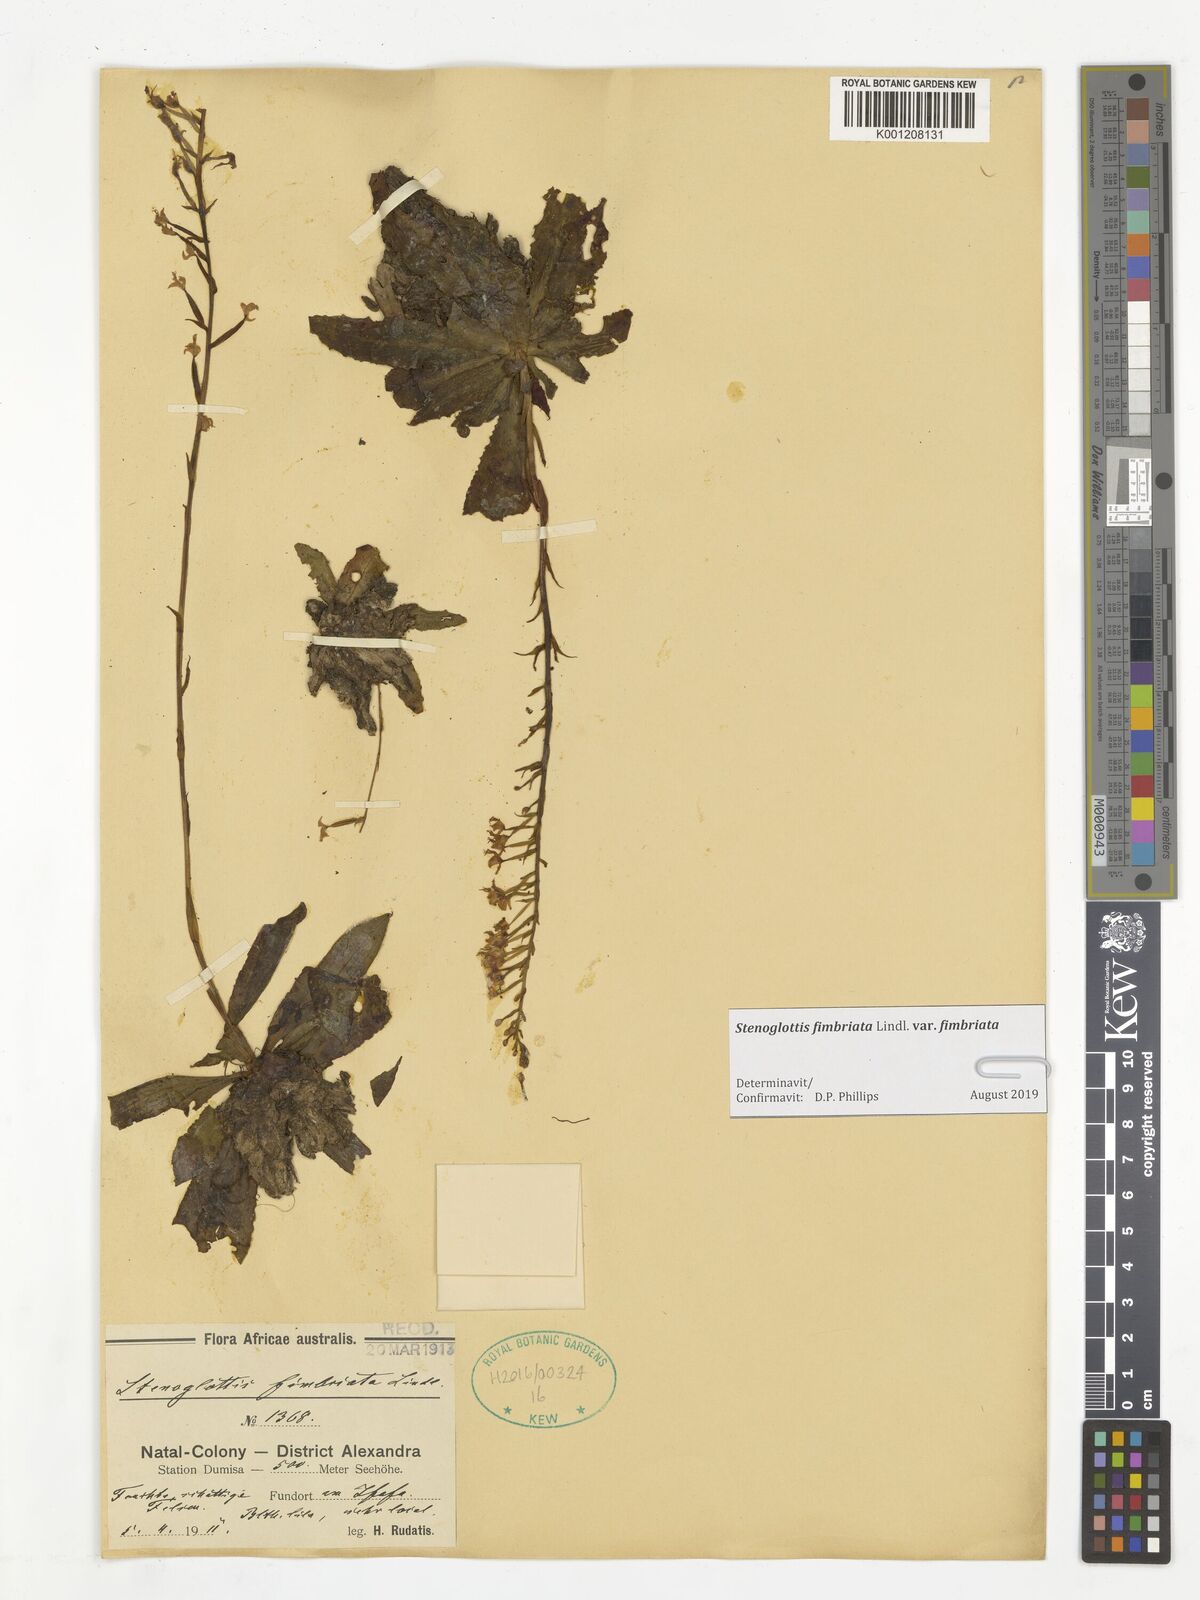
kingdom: Plantae
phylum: Tracheophyta
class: Liliopsida
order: Asparagales
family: Orchidaceae
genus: Stenoglottis
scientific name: Stenoglottis fimbriata
